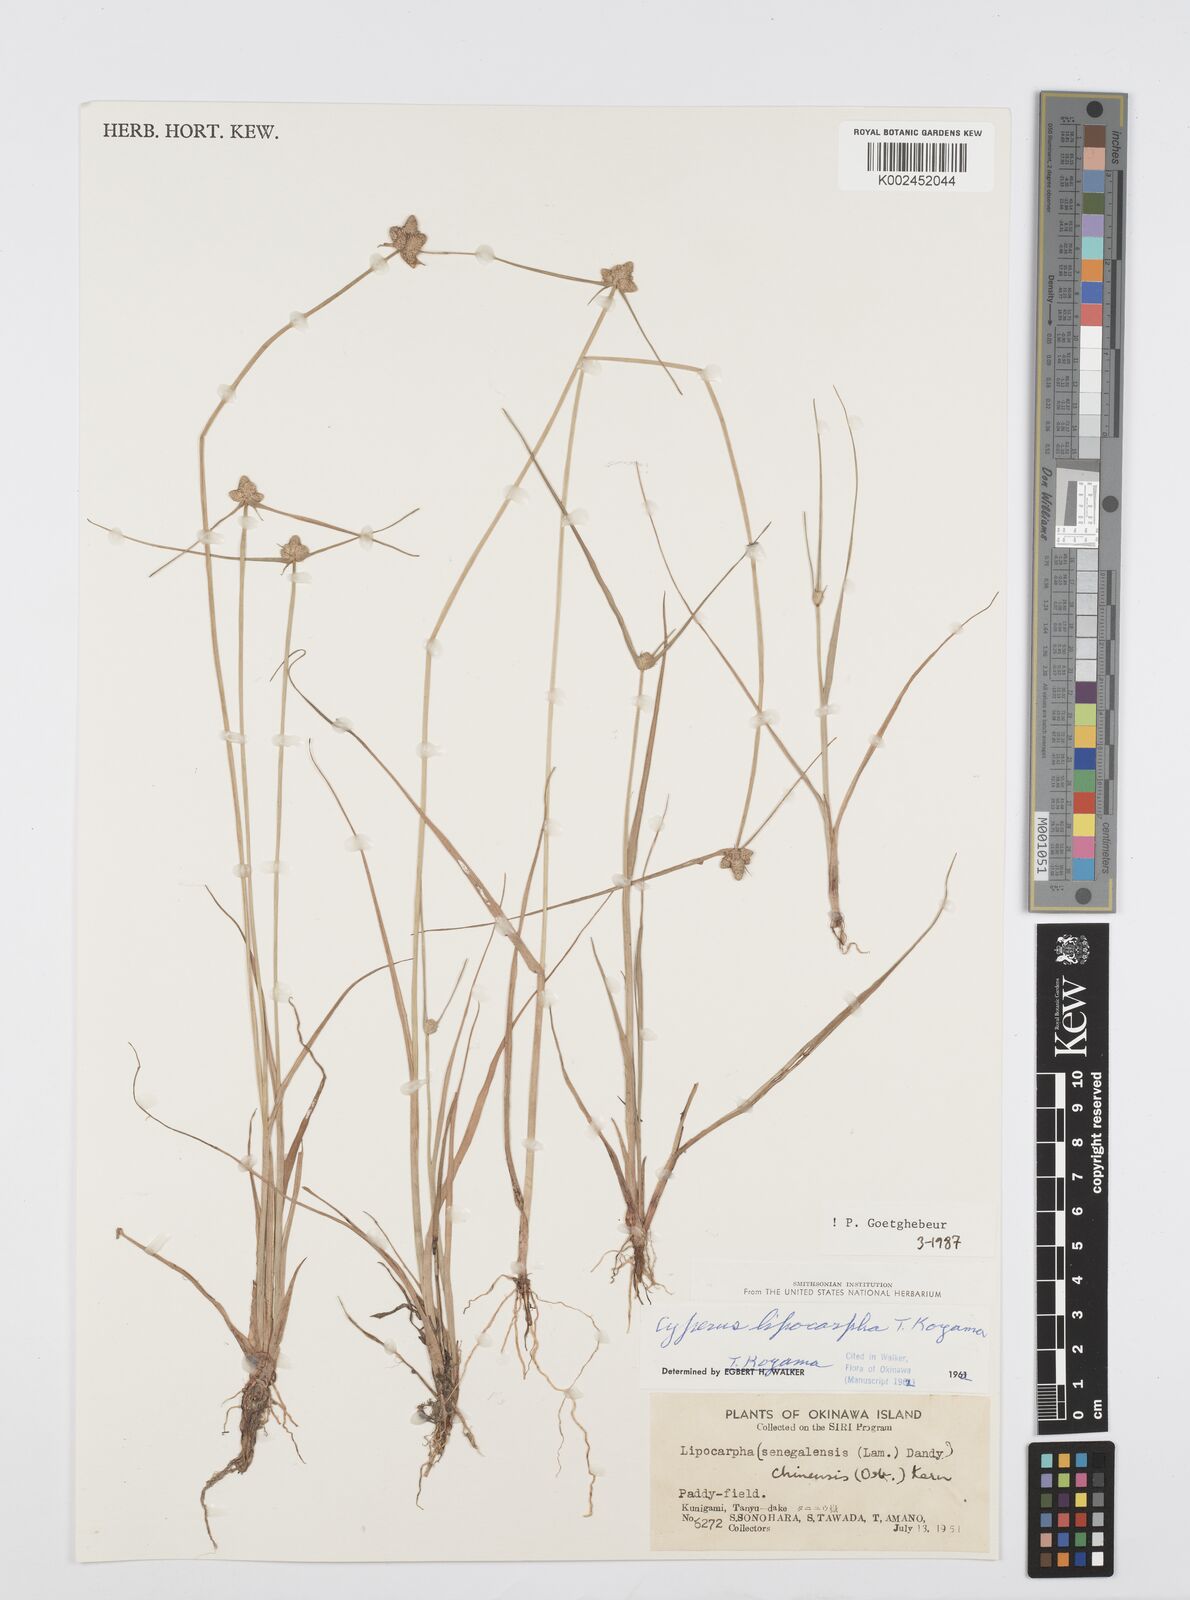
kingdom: Plantae
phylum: Tracheophyta
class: Liliopsida
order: Poales
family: Cyperaceae
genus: Cyperus
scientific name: Cyperus albescens
